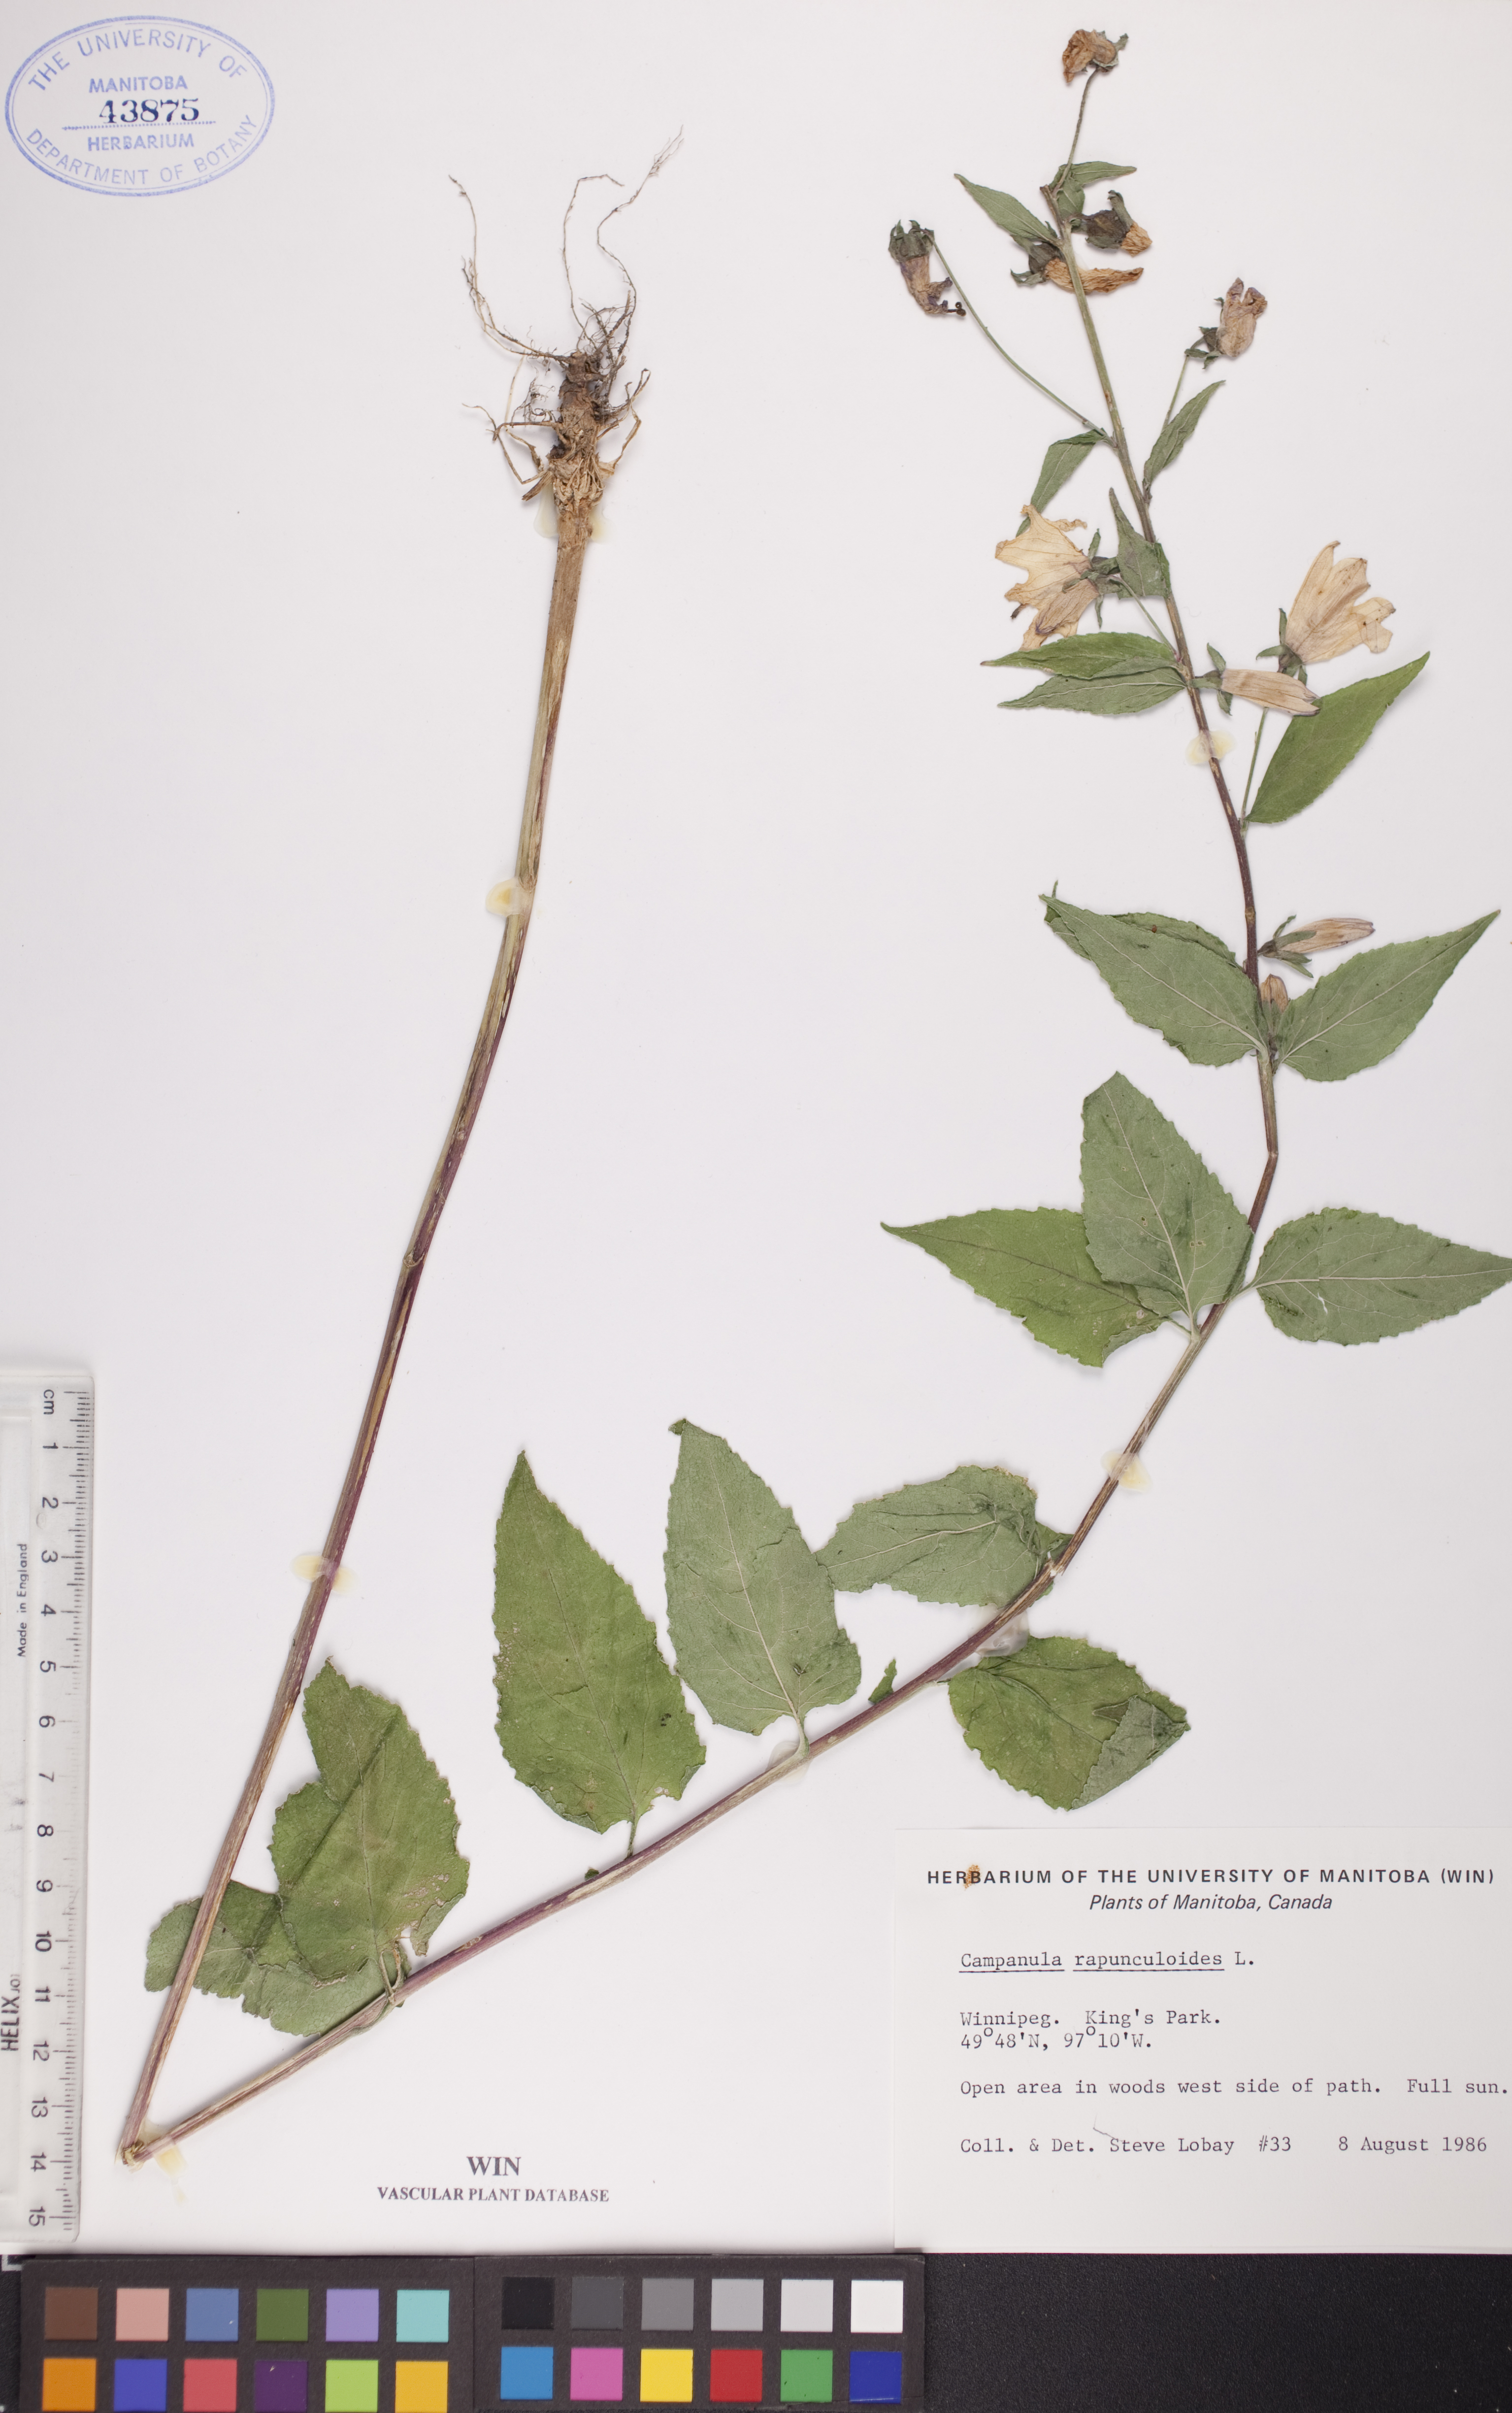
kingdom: Plantae
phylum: Tracheophyta
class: Magnoliopsida
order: Asterales
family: Campanulaceae
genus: Campanula
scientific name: Campanula rapunculoides
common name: Creeping bellflower
